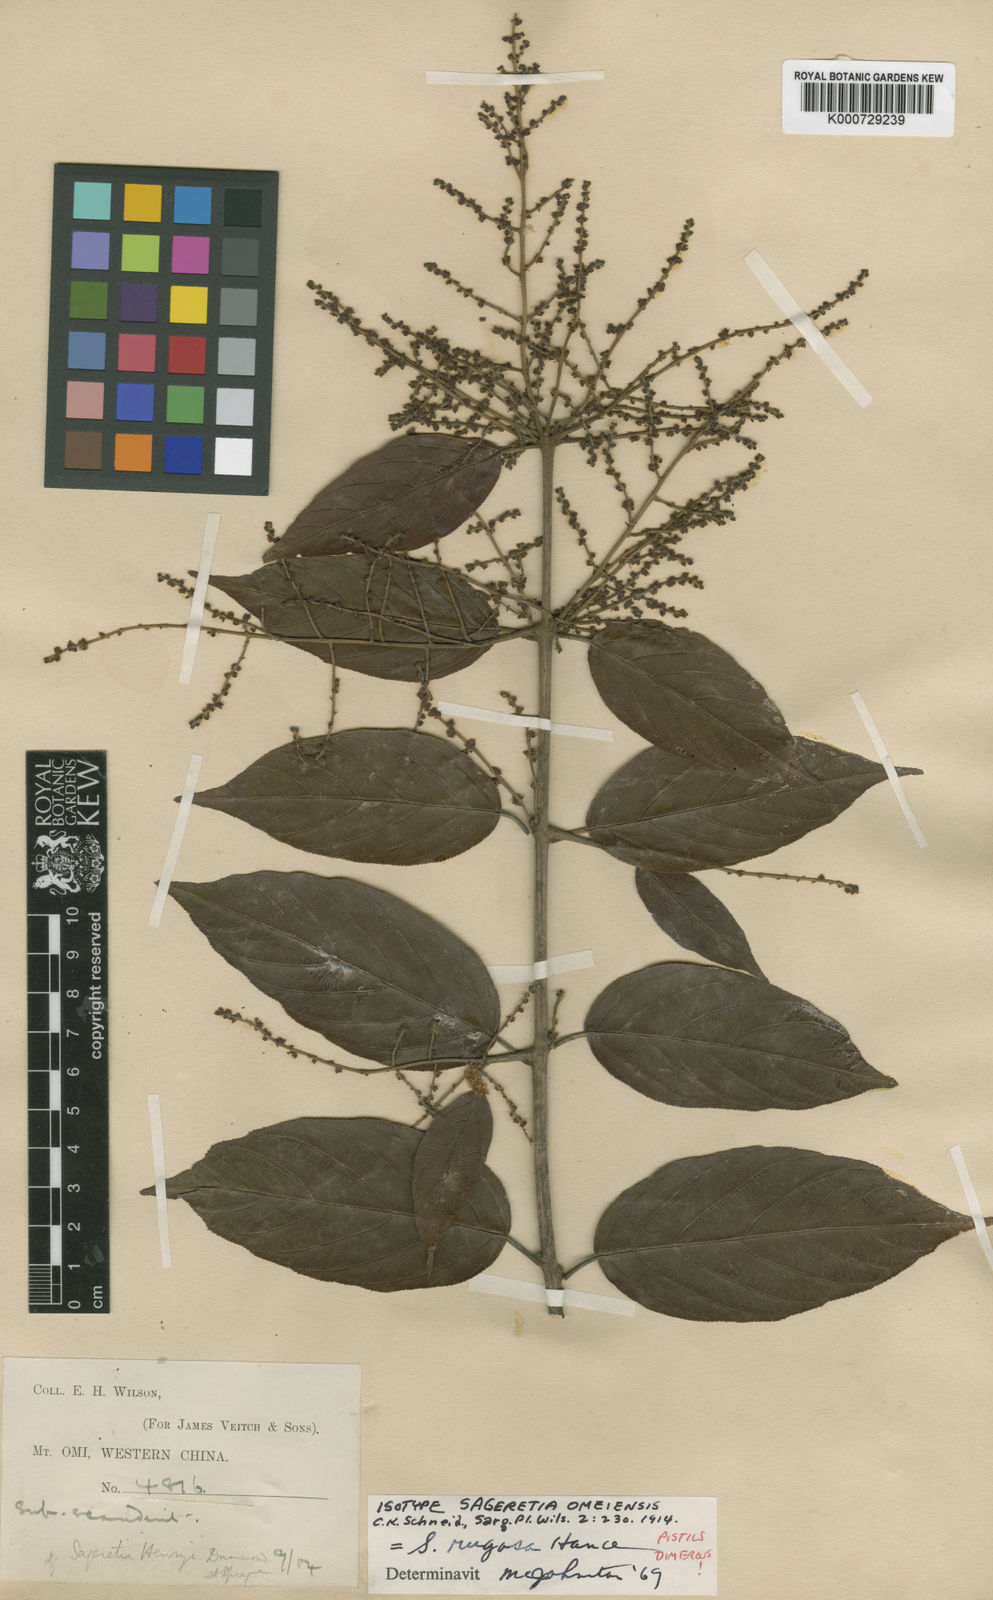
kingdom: Plantae
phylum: Tracheophyta
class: Magnoliopsida
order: Rosales
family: Rhamnaceae
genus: Sageretia
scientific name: Sageretia rugosa
